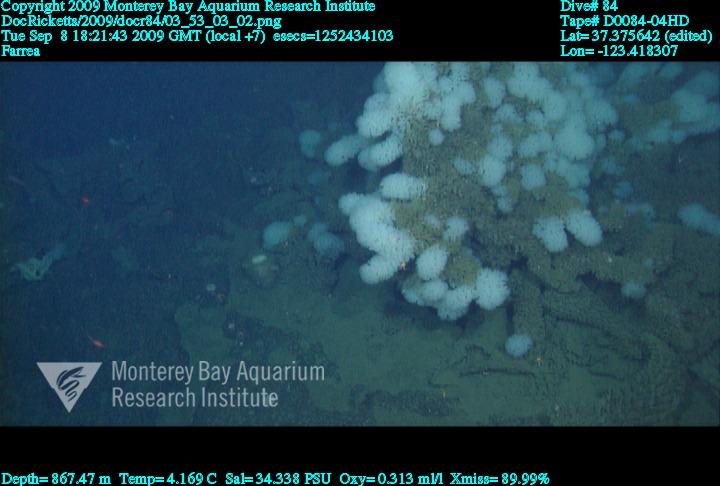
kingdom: Animalia
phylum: Porifera
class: Hexactinellida
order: Sceptrulophora
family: Farreidae
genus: Farrea
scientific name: Farrea
